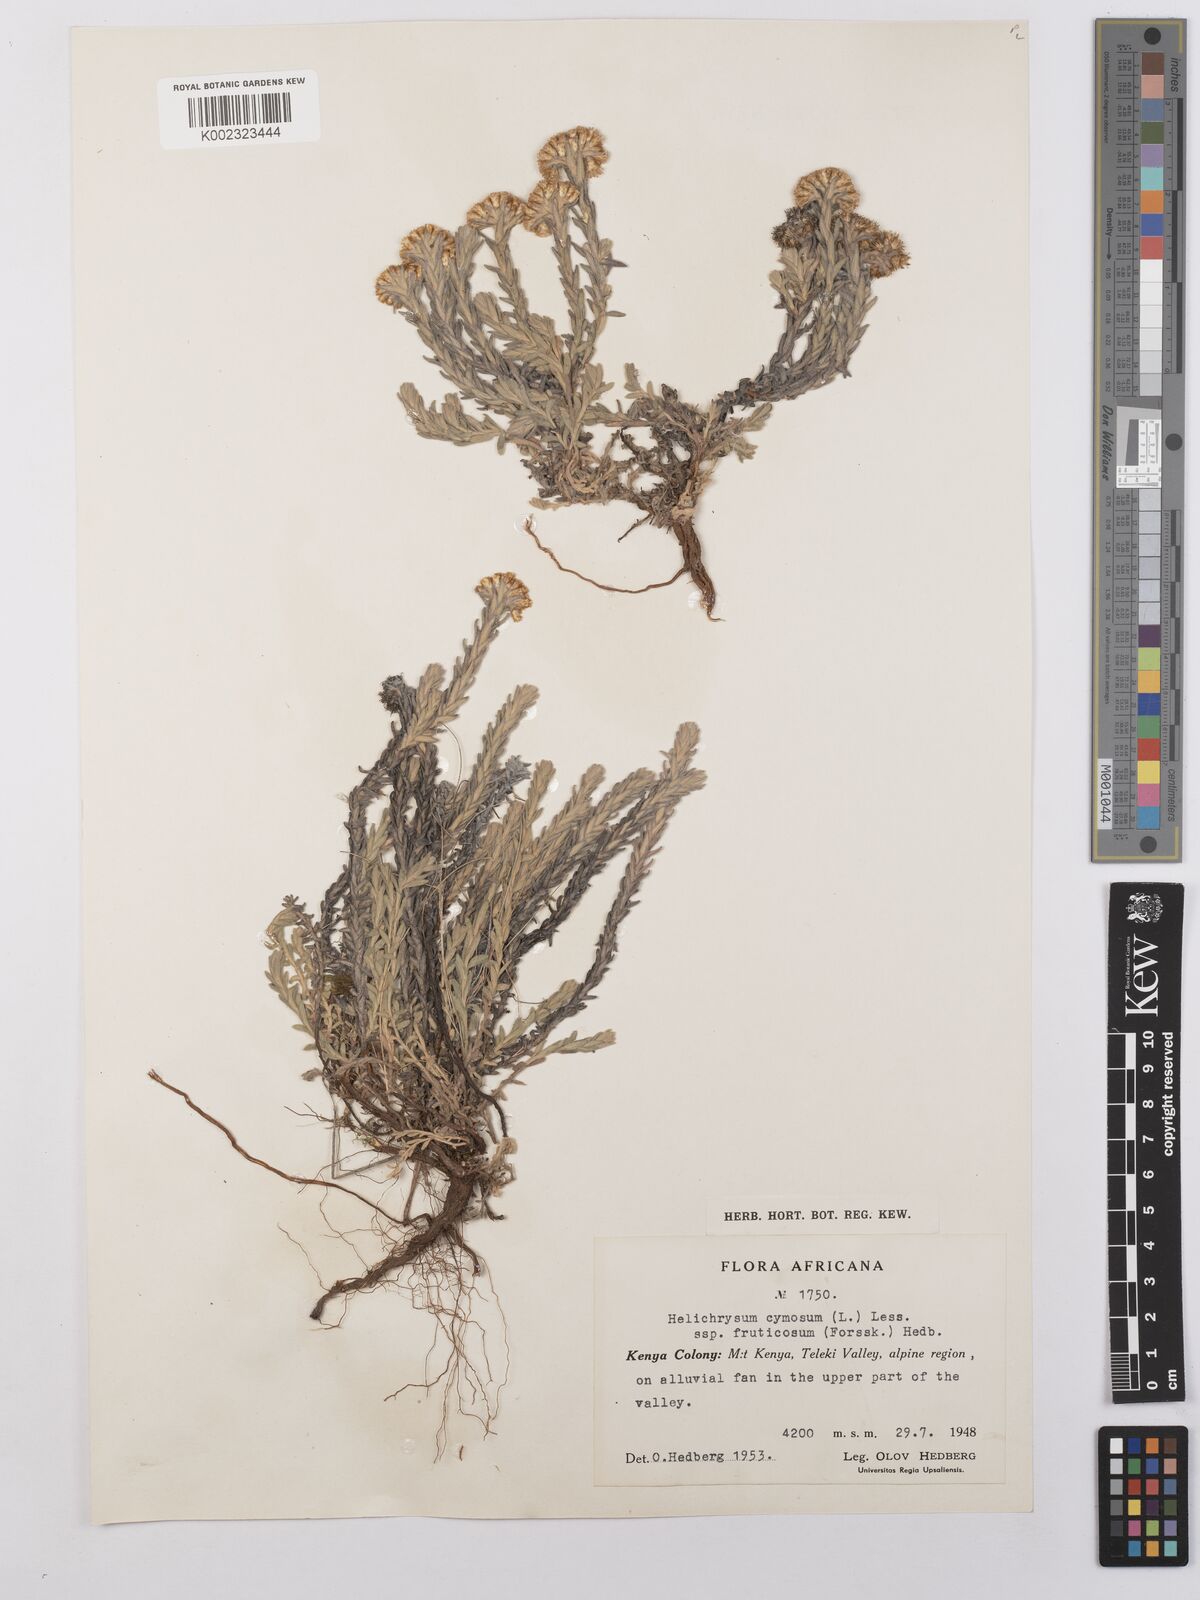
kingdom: Plantae
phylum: Tracheophyta
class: Magnoliopsida
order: Asterales
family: Asteraceae
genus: Helichrysum
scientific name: Helichrysum forskahlii
